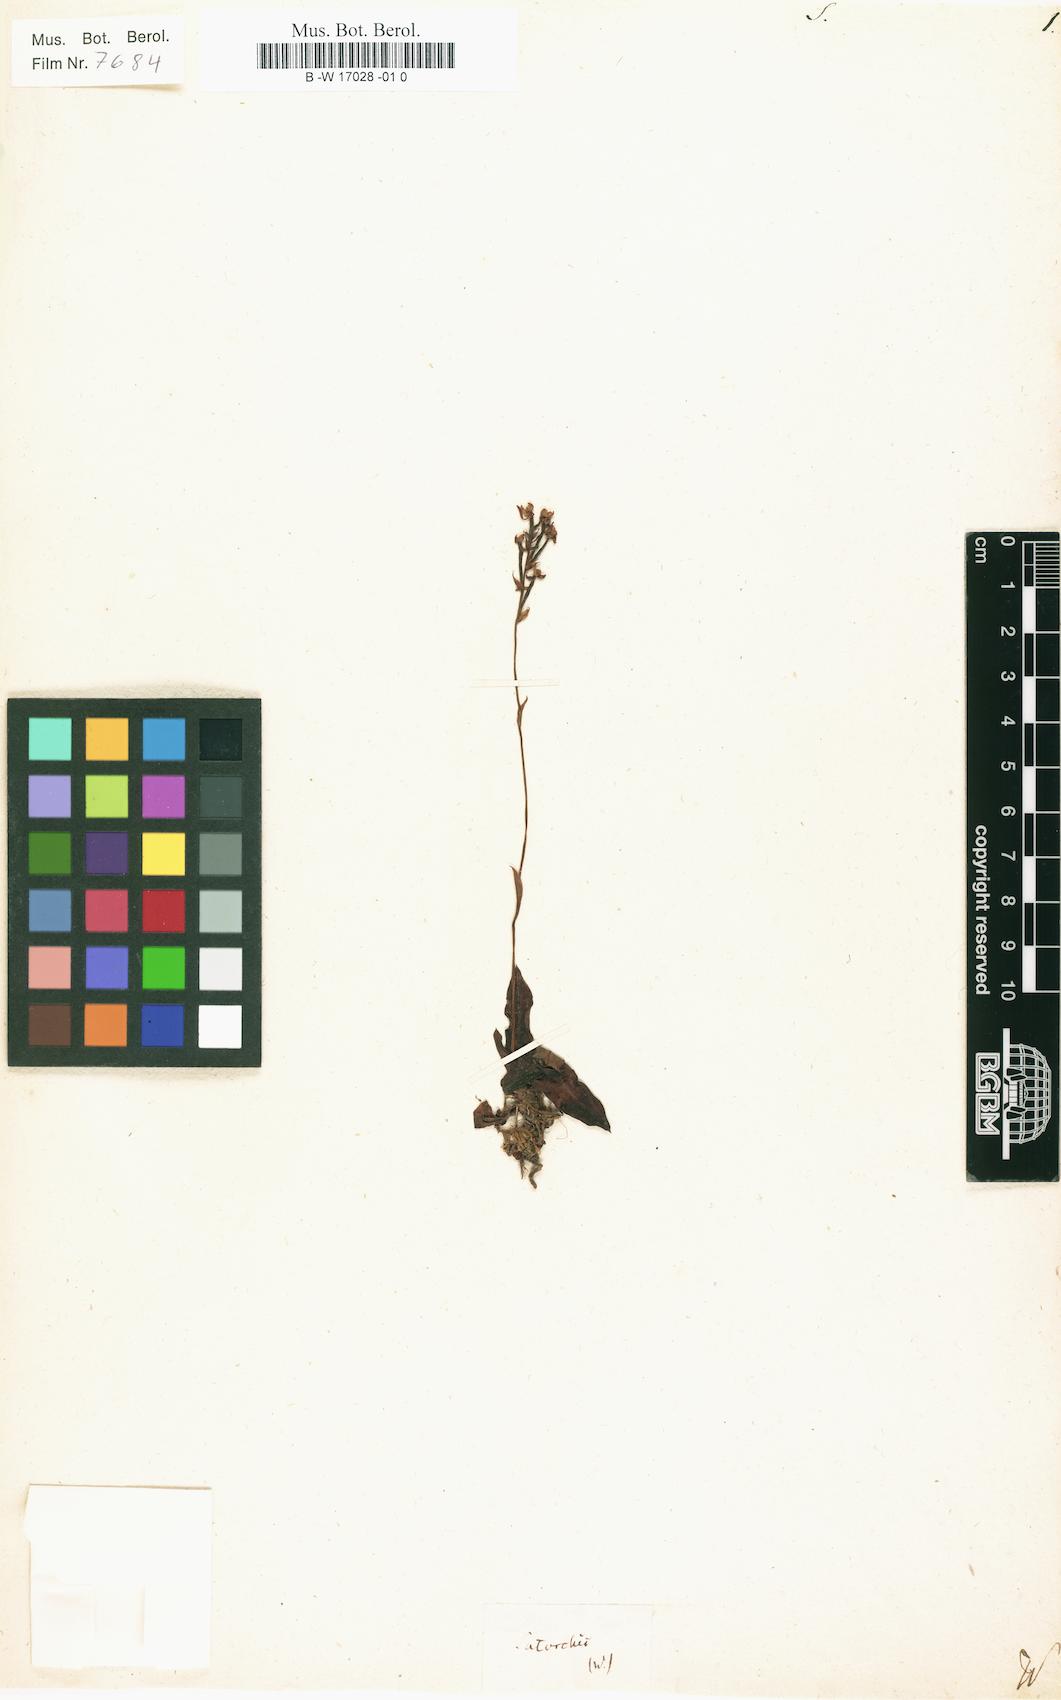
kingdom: Plantae
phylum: Tracheophyta
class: Liliopsida
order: Asparagales
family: Orchidaceae
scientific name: Orchidaceae
